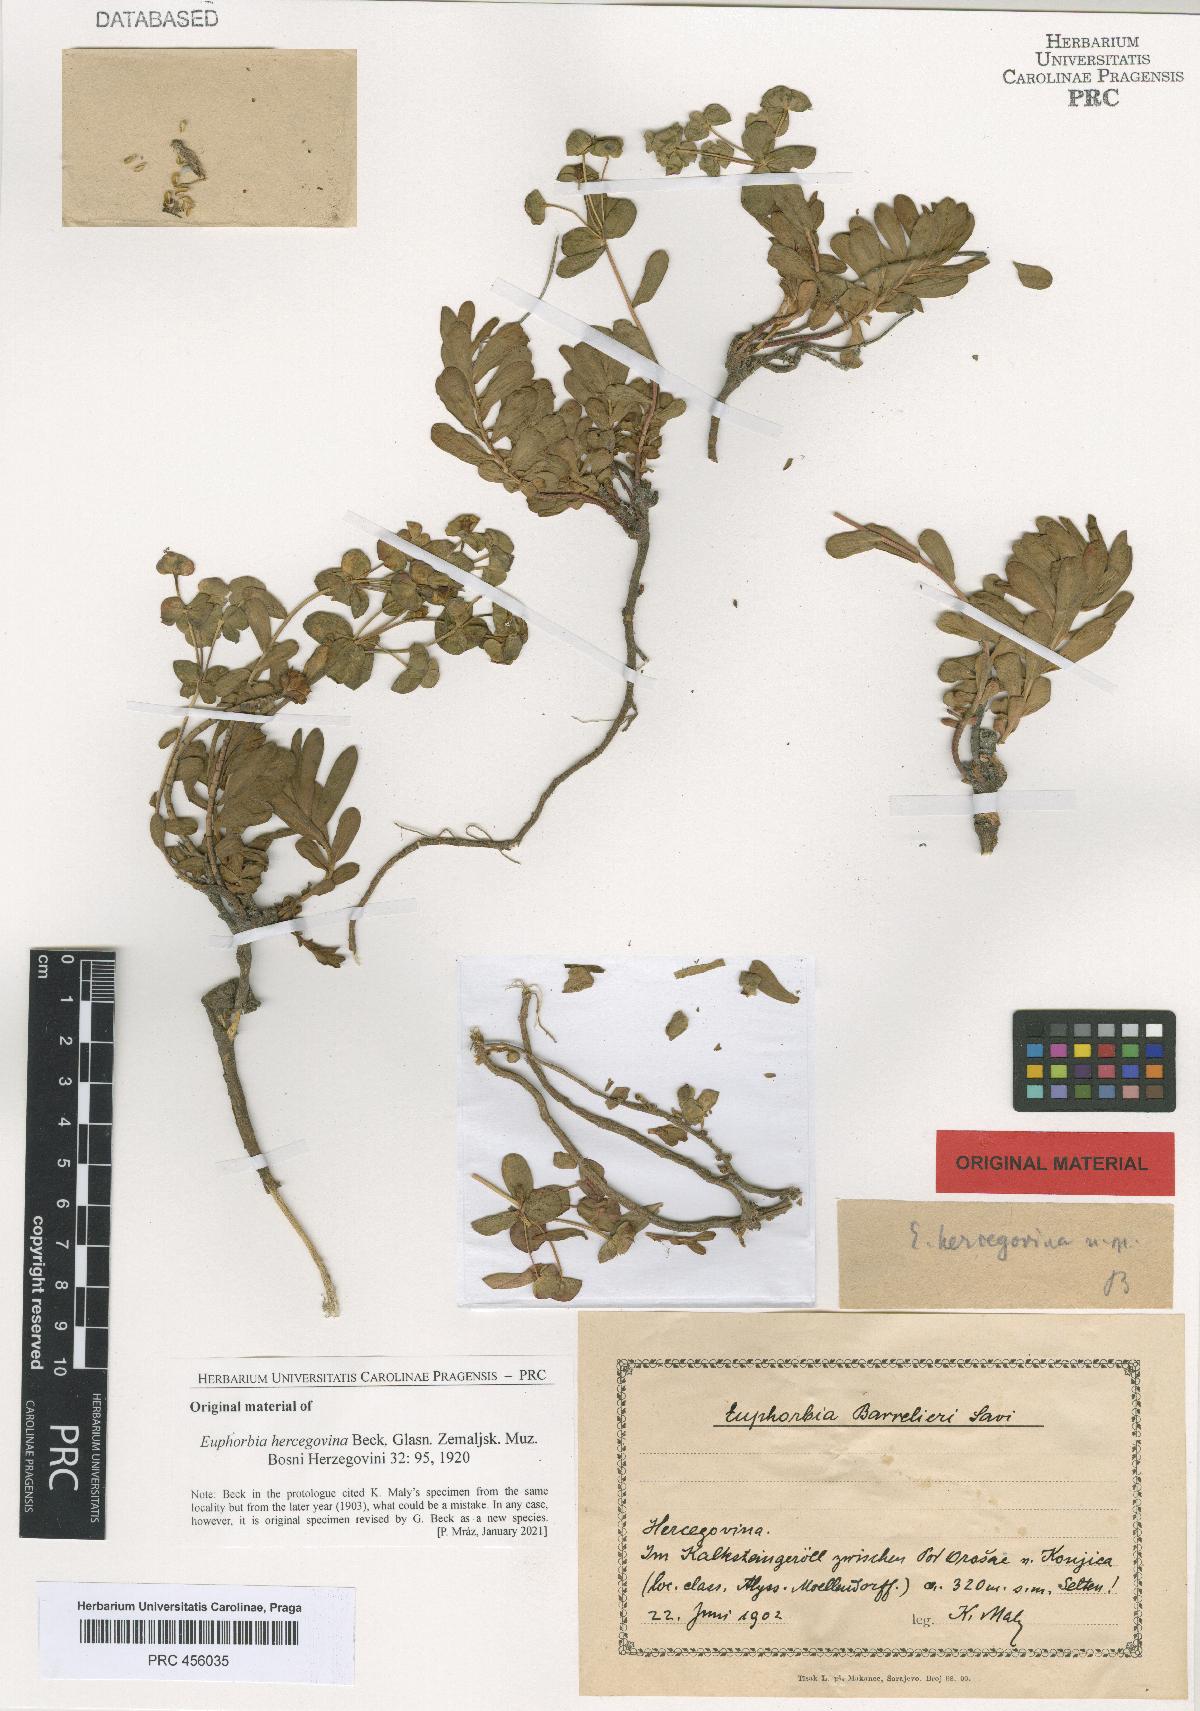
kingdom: Plantae
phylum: Tracheophyta
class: Magnoliopsida
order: Malpighiales
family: Euphorbiaceae
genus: Euphorbia
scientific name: Euphorbia barrelieri
